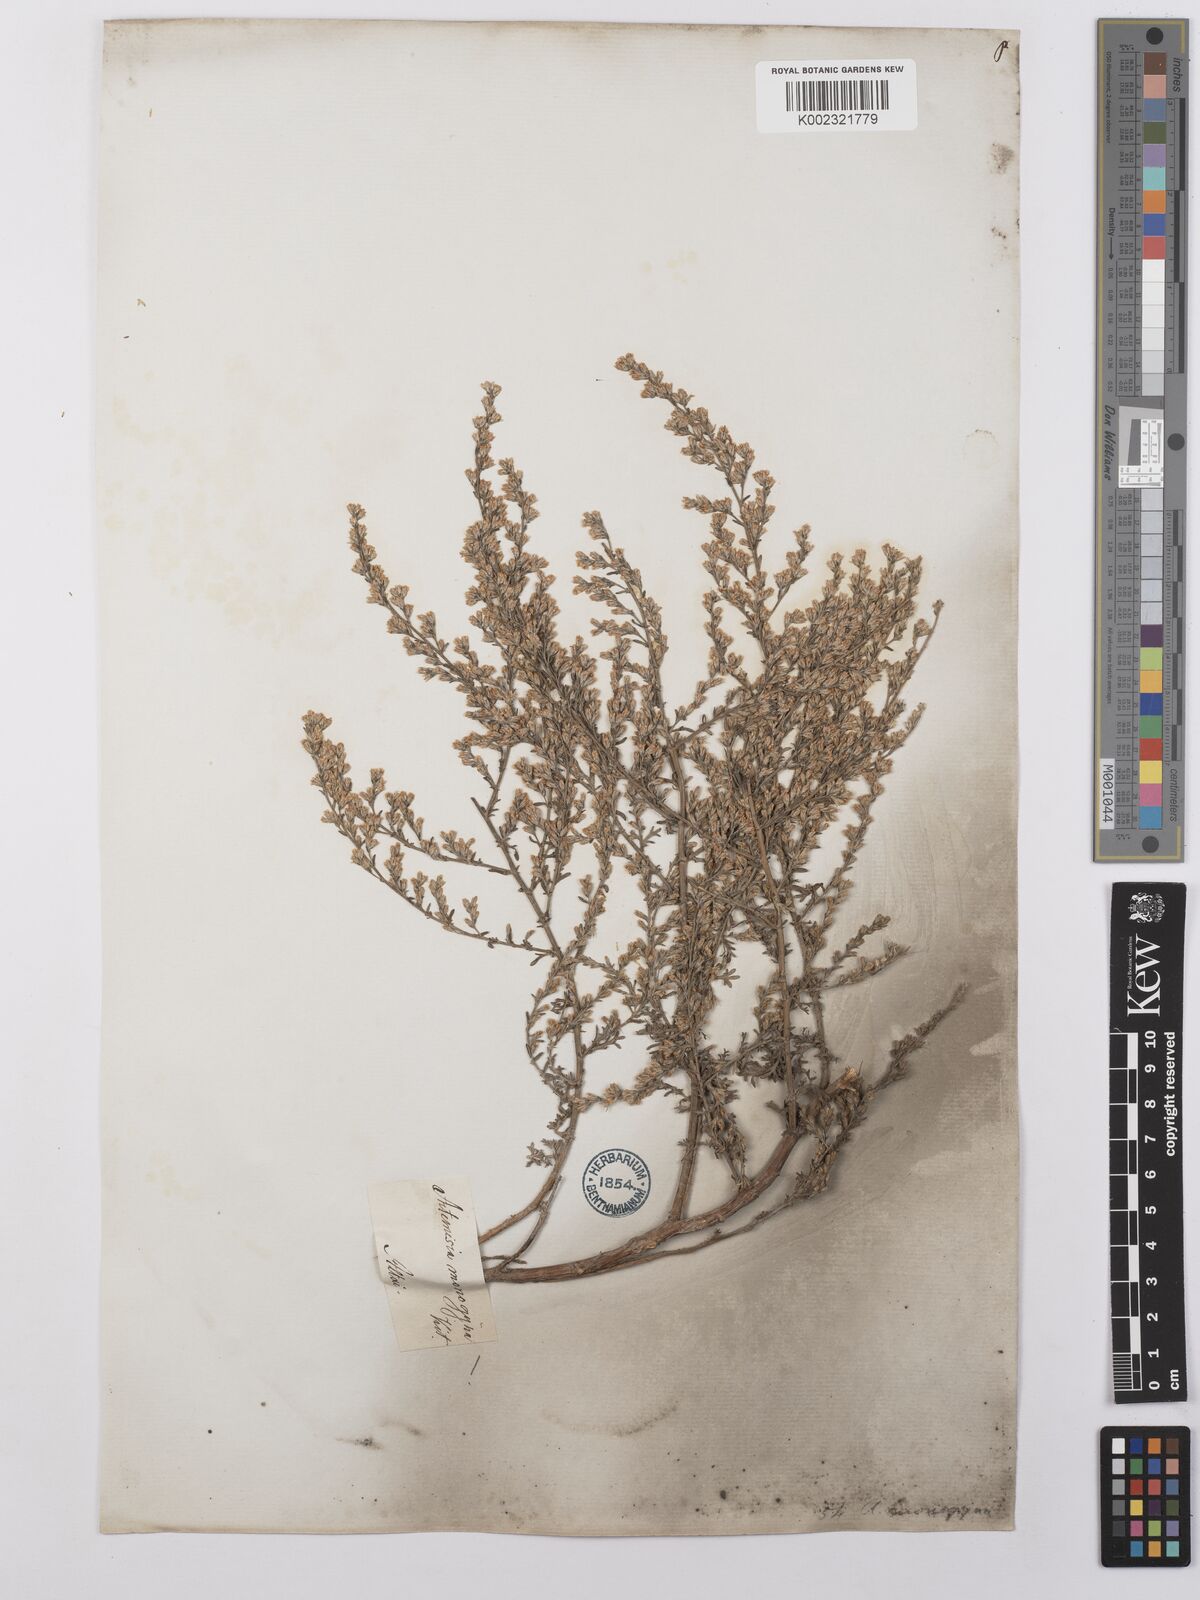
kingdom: Plantae
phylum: Tracheophyta
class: Magnoliopsida
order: Asterales
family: Asteraceae
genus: Artemisia
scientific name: Artemisia santonicum
